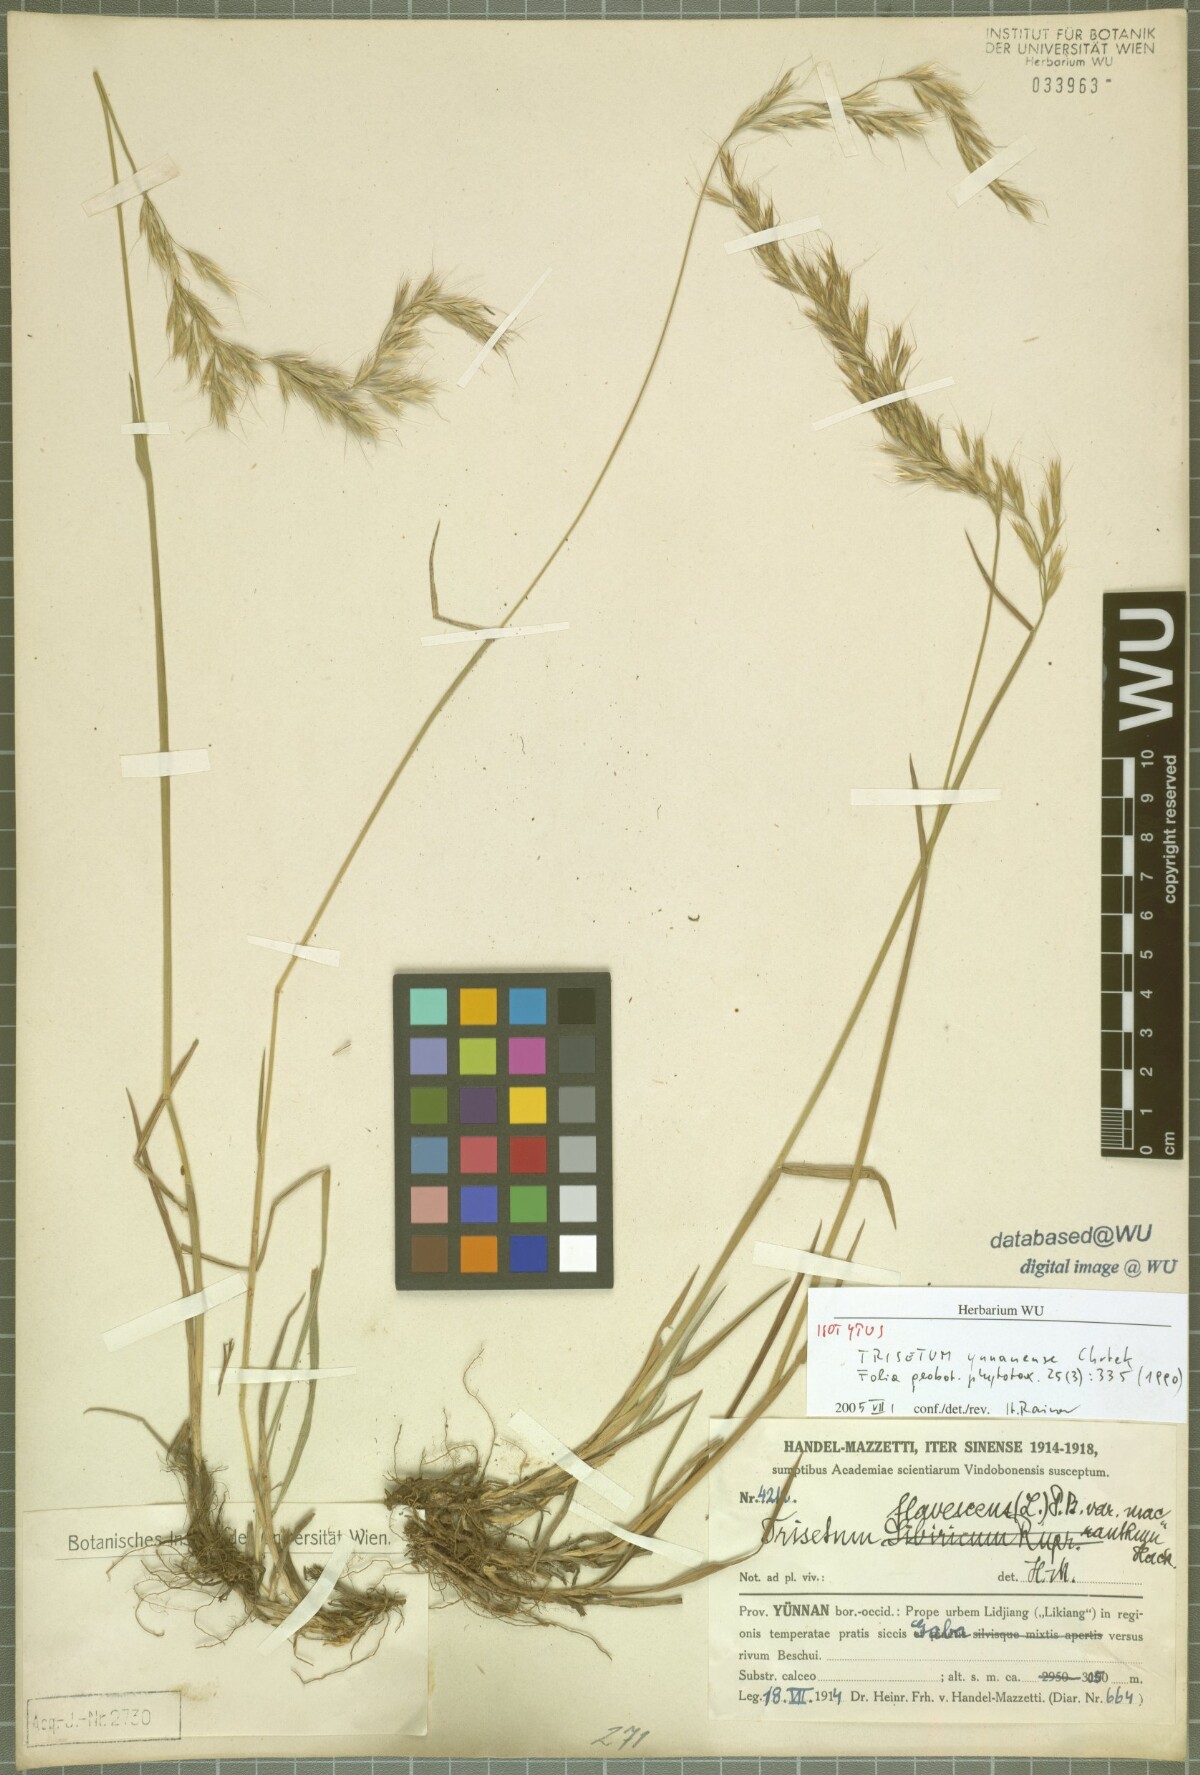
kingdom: Plantae
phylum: Tracheophyta
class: Liliopsida
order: Poales
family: Poaceae
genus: Trisetum
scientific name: Trisetum yunnanense
